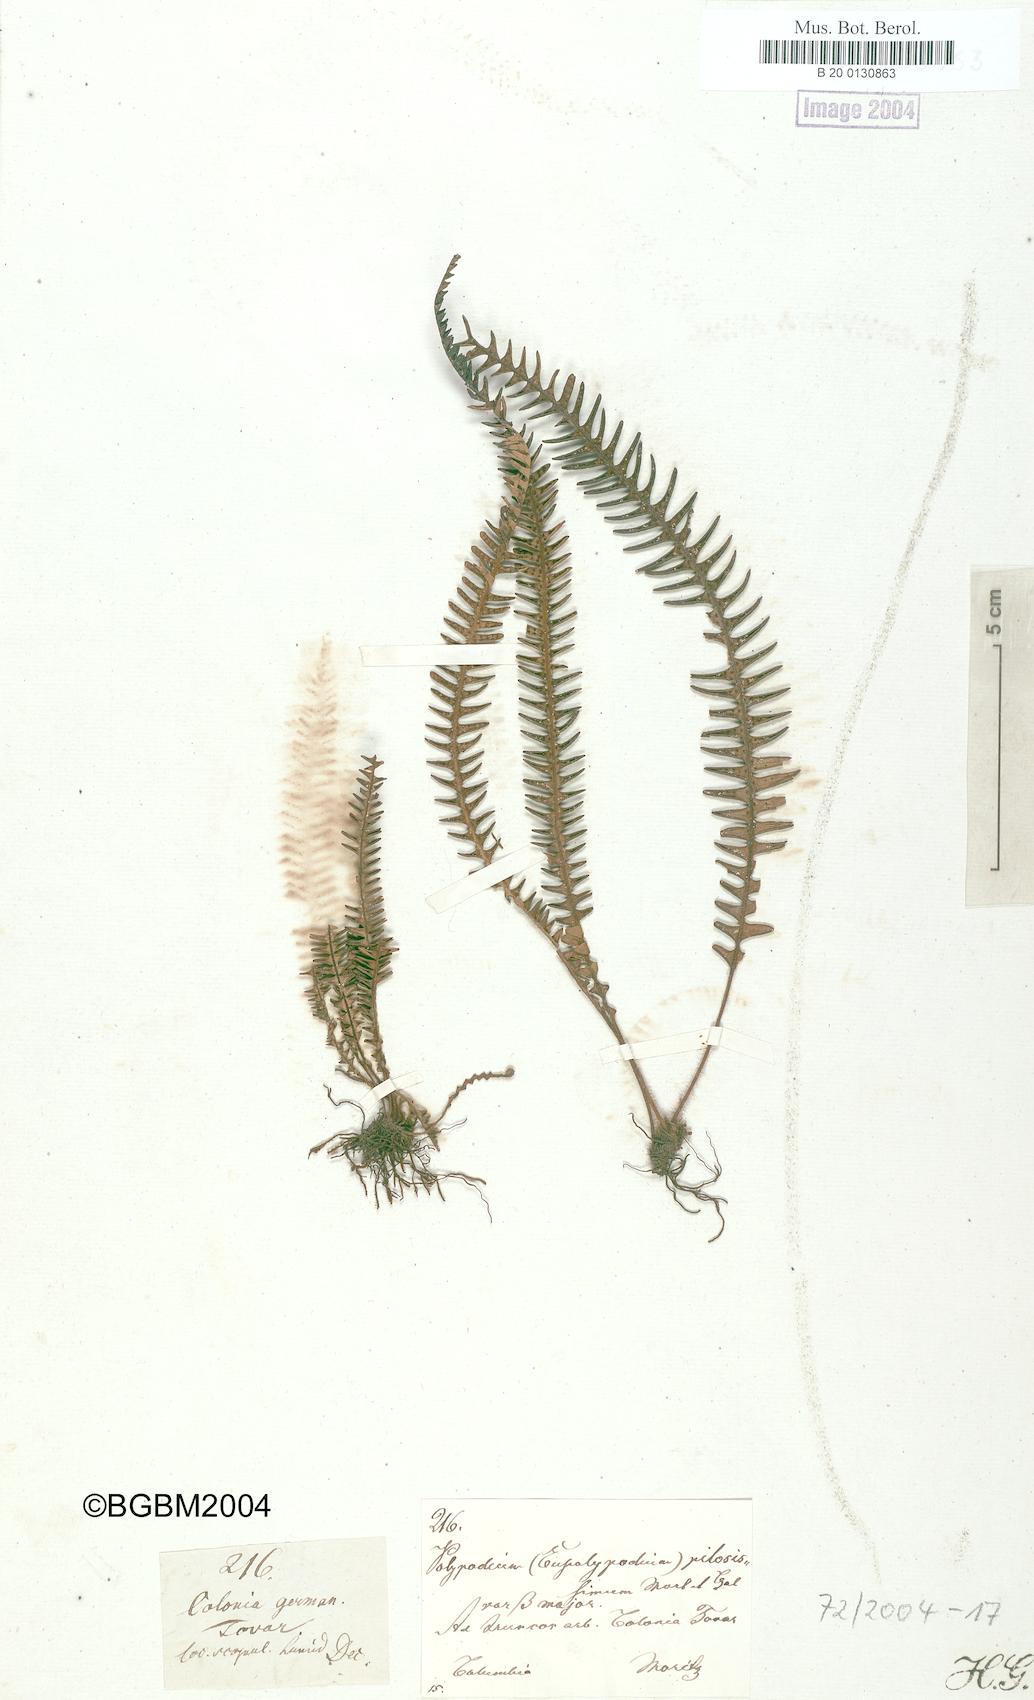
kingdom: Plantae
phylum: Tracheophyta
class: Polypodiopsida
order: Polypodiales
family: Polypodiaceae
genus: Melpomene
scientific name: Melpomene pilosissima
